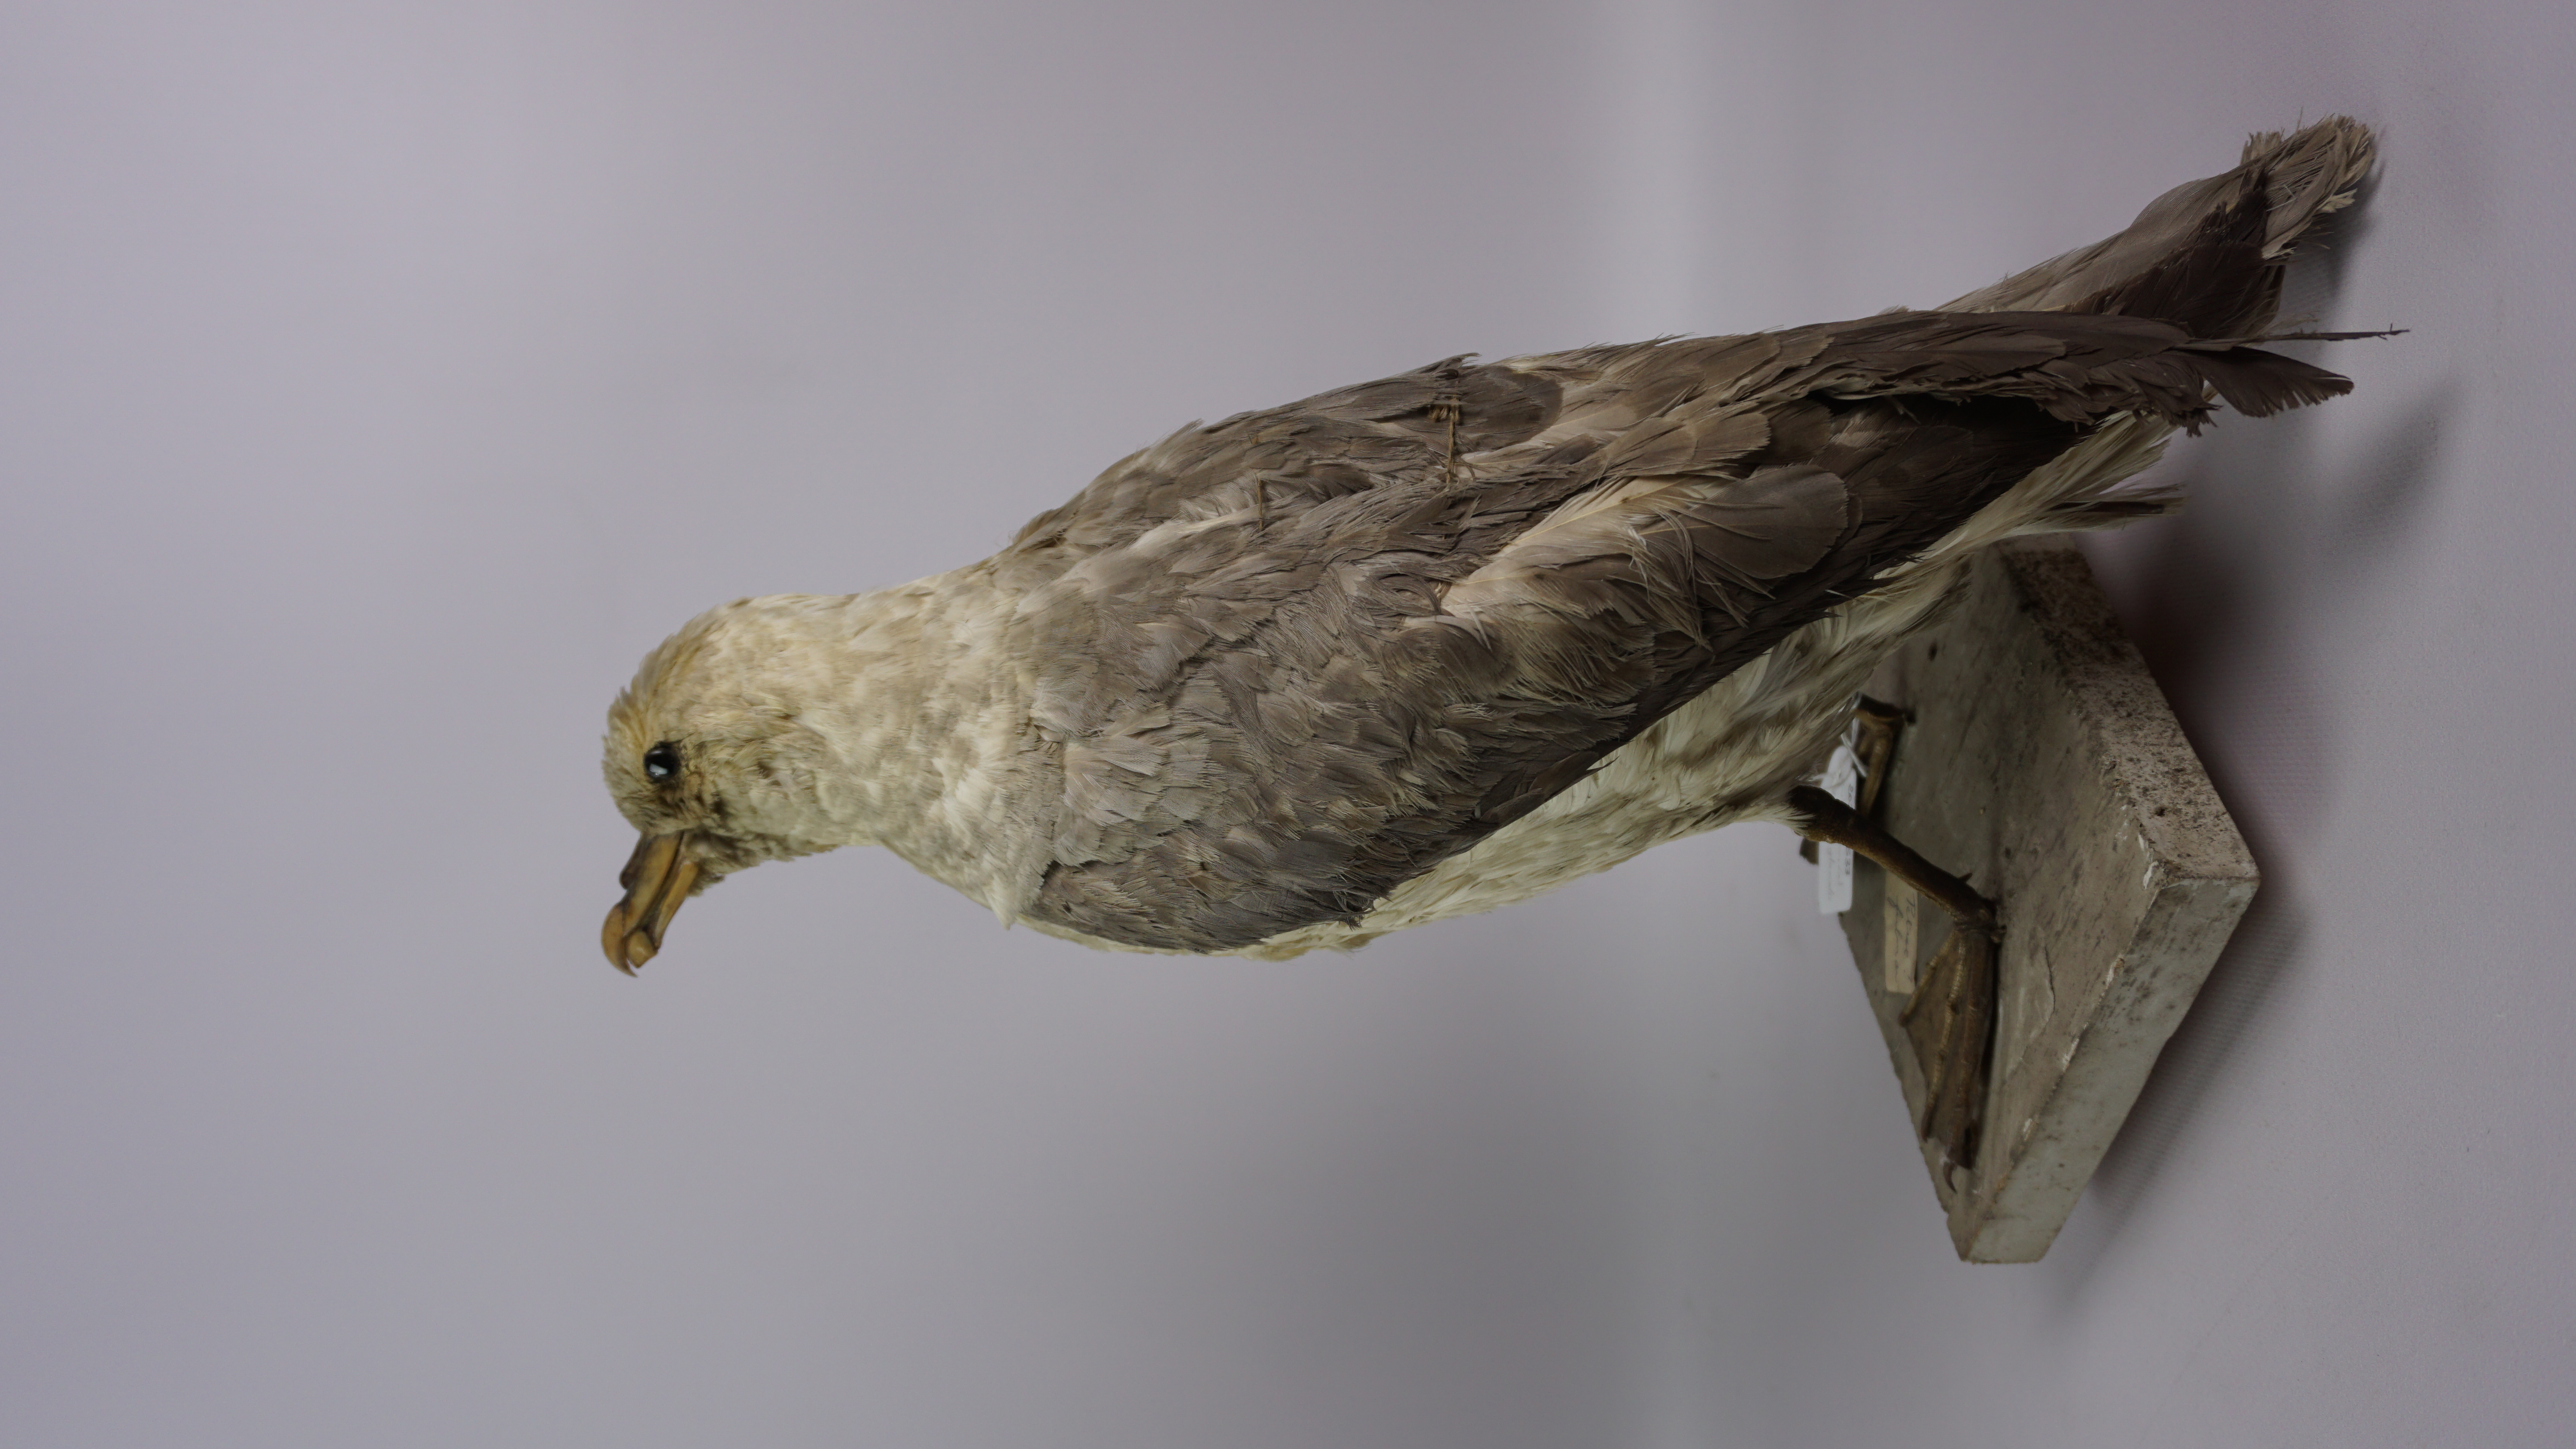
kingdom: Animalia
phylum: Chordata
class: Aves
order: Procellariiformes
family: Procellariidae
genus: Fulmarus
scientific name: Fulmarus glacialis
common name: Northern fulmar
